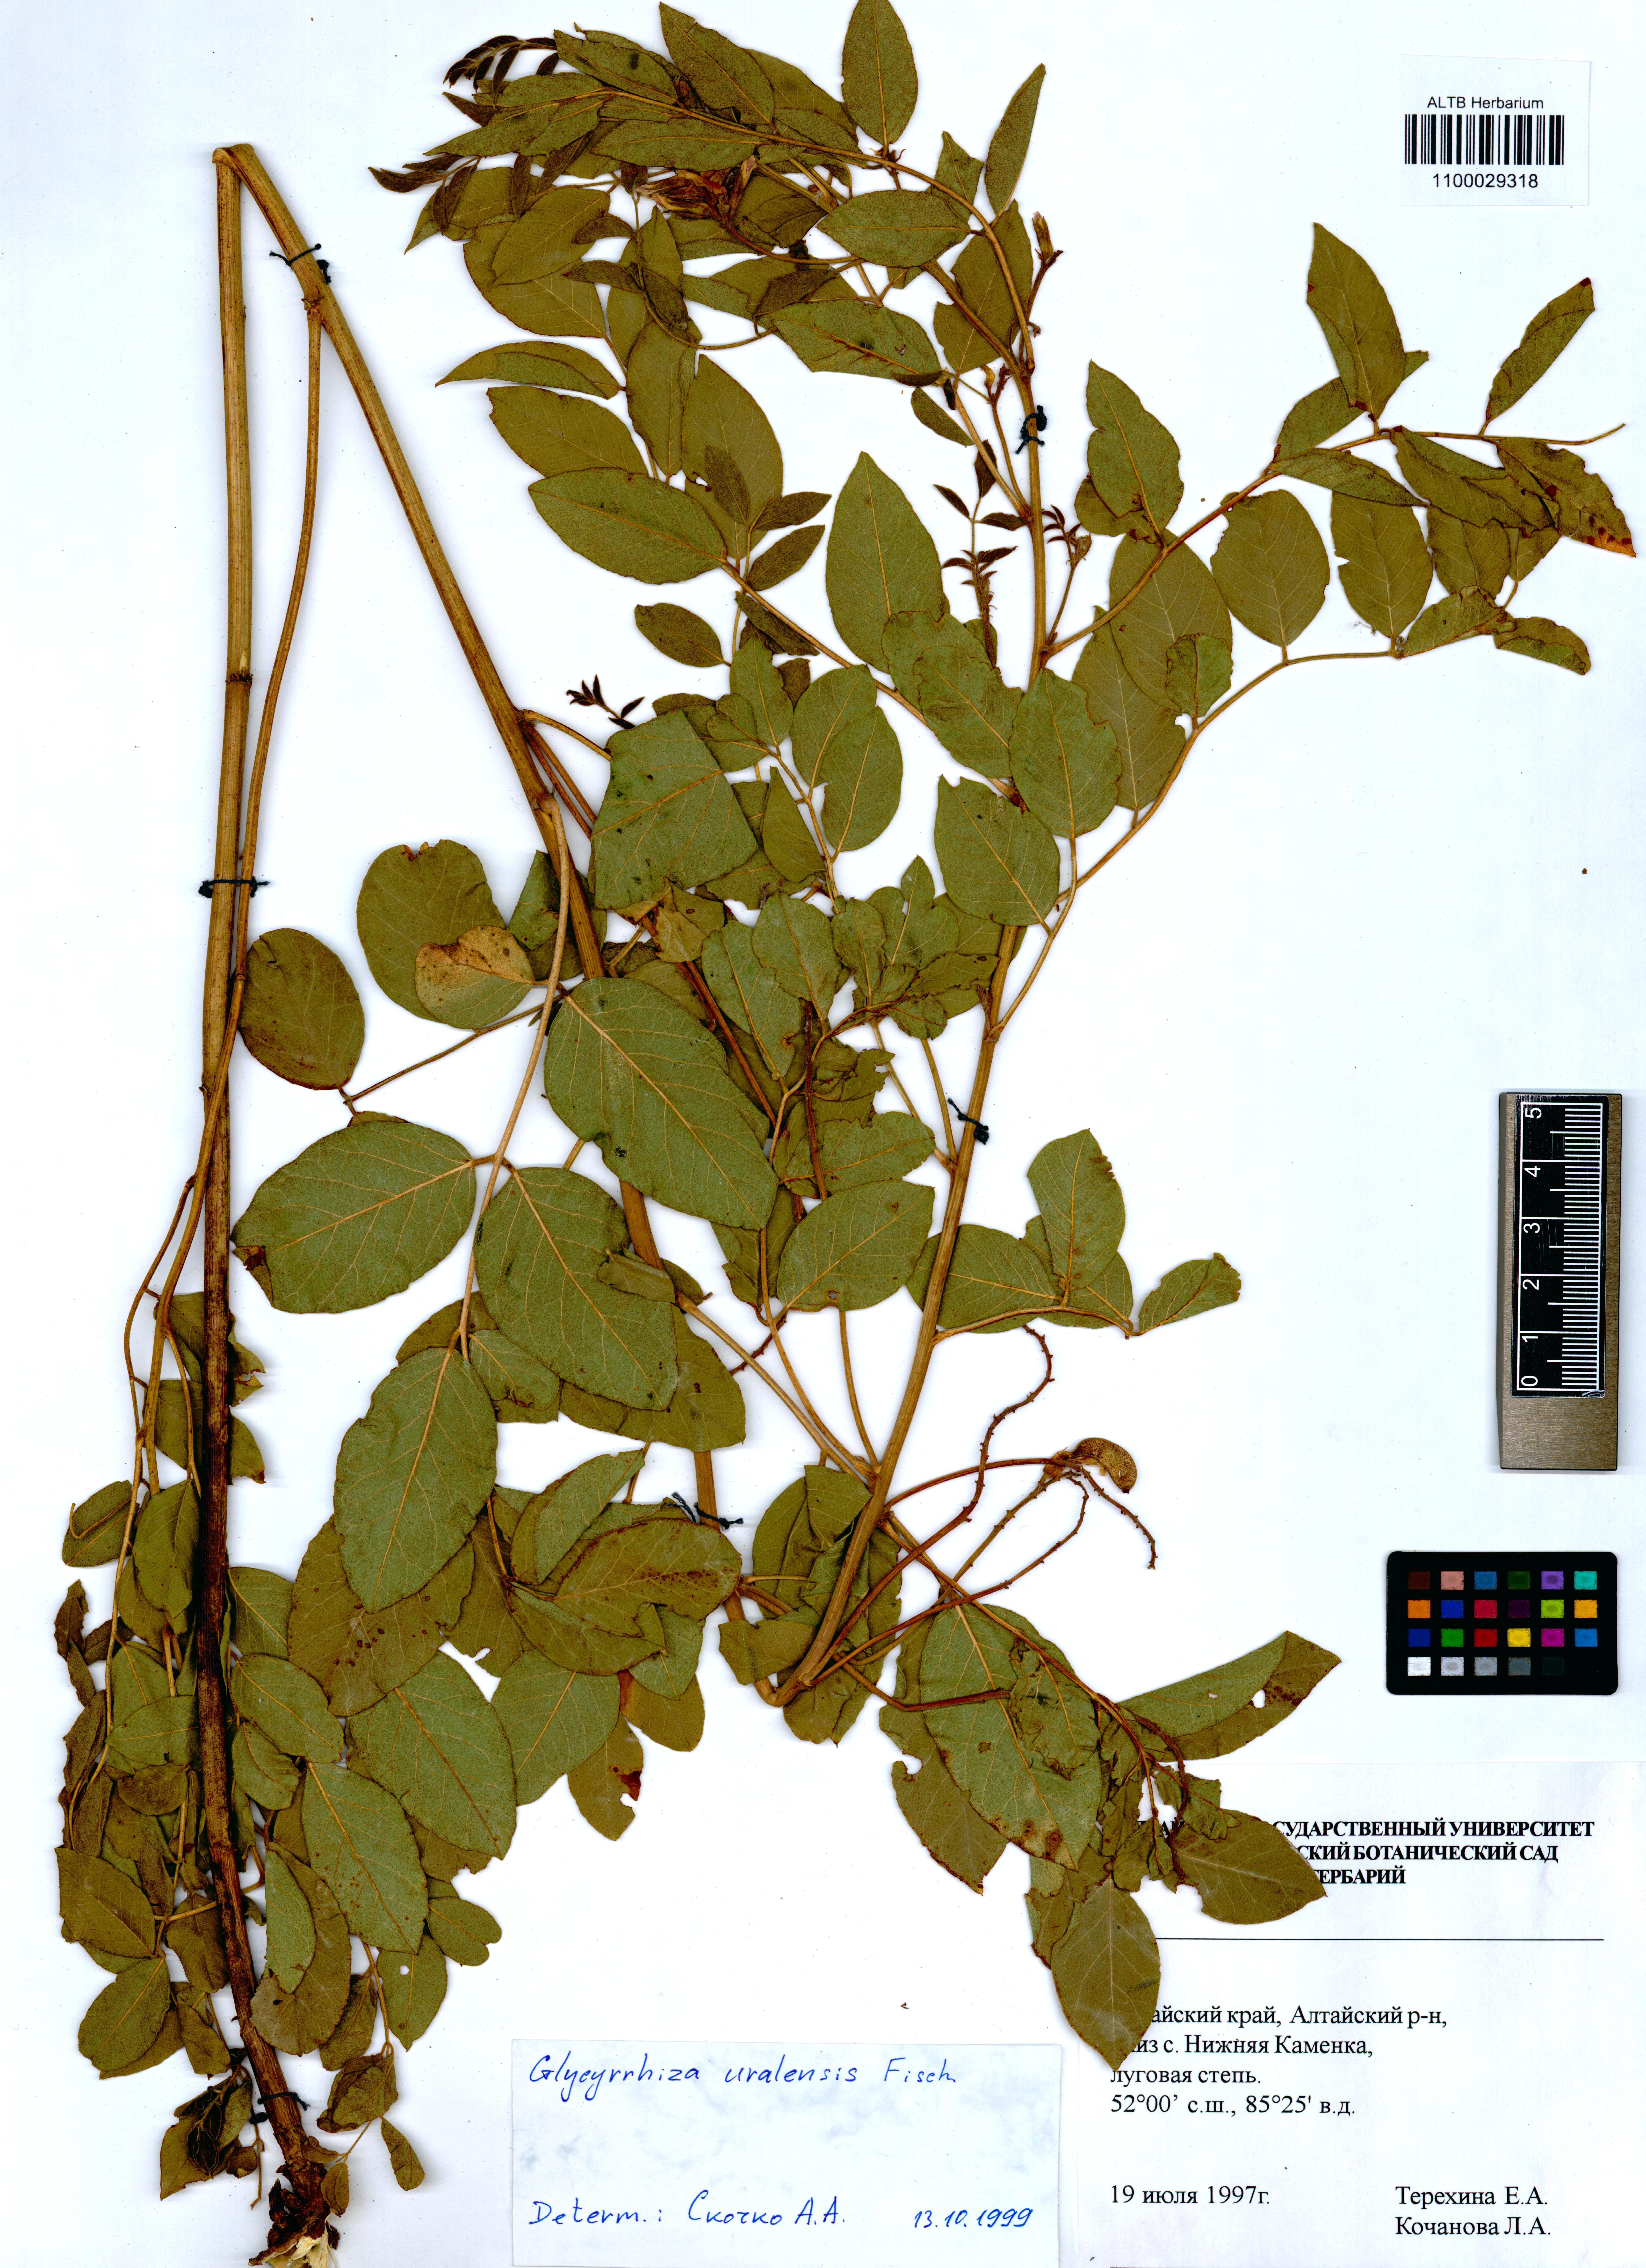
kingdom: Plantae
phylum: Tracheophyta
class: Magnoliopsida
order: Fabales
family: Fabaceae
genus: Glycyrrhiza
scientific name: Glycyrrhiza uralensis
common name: Chinese licorice
